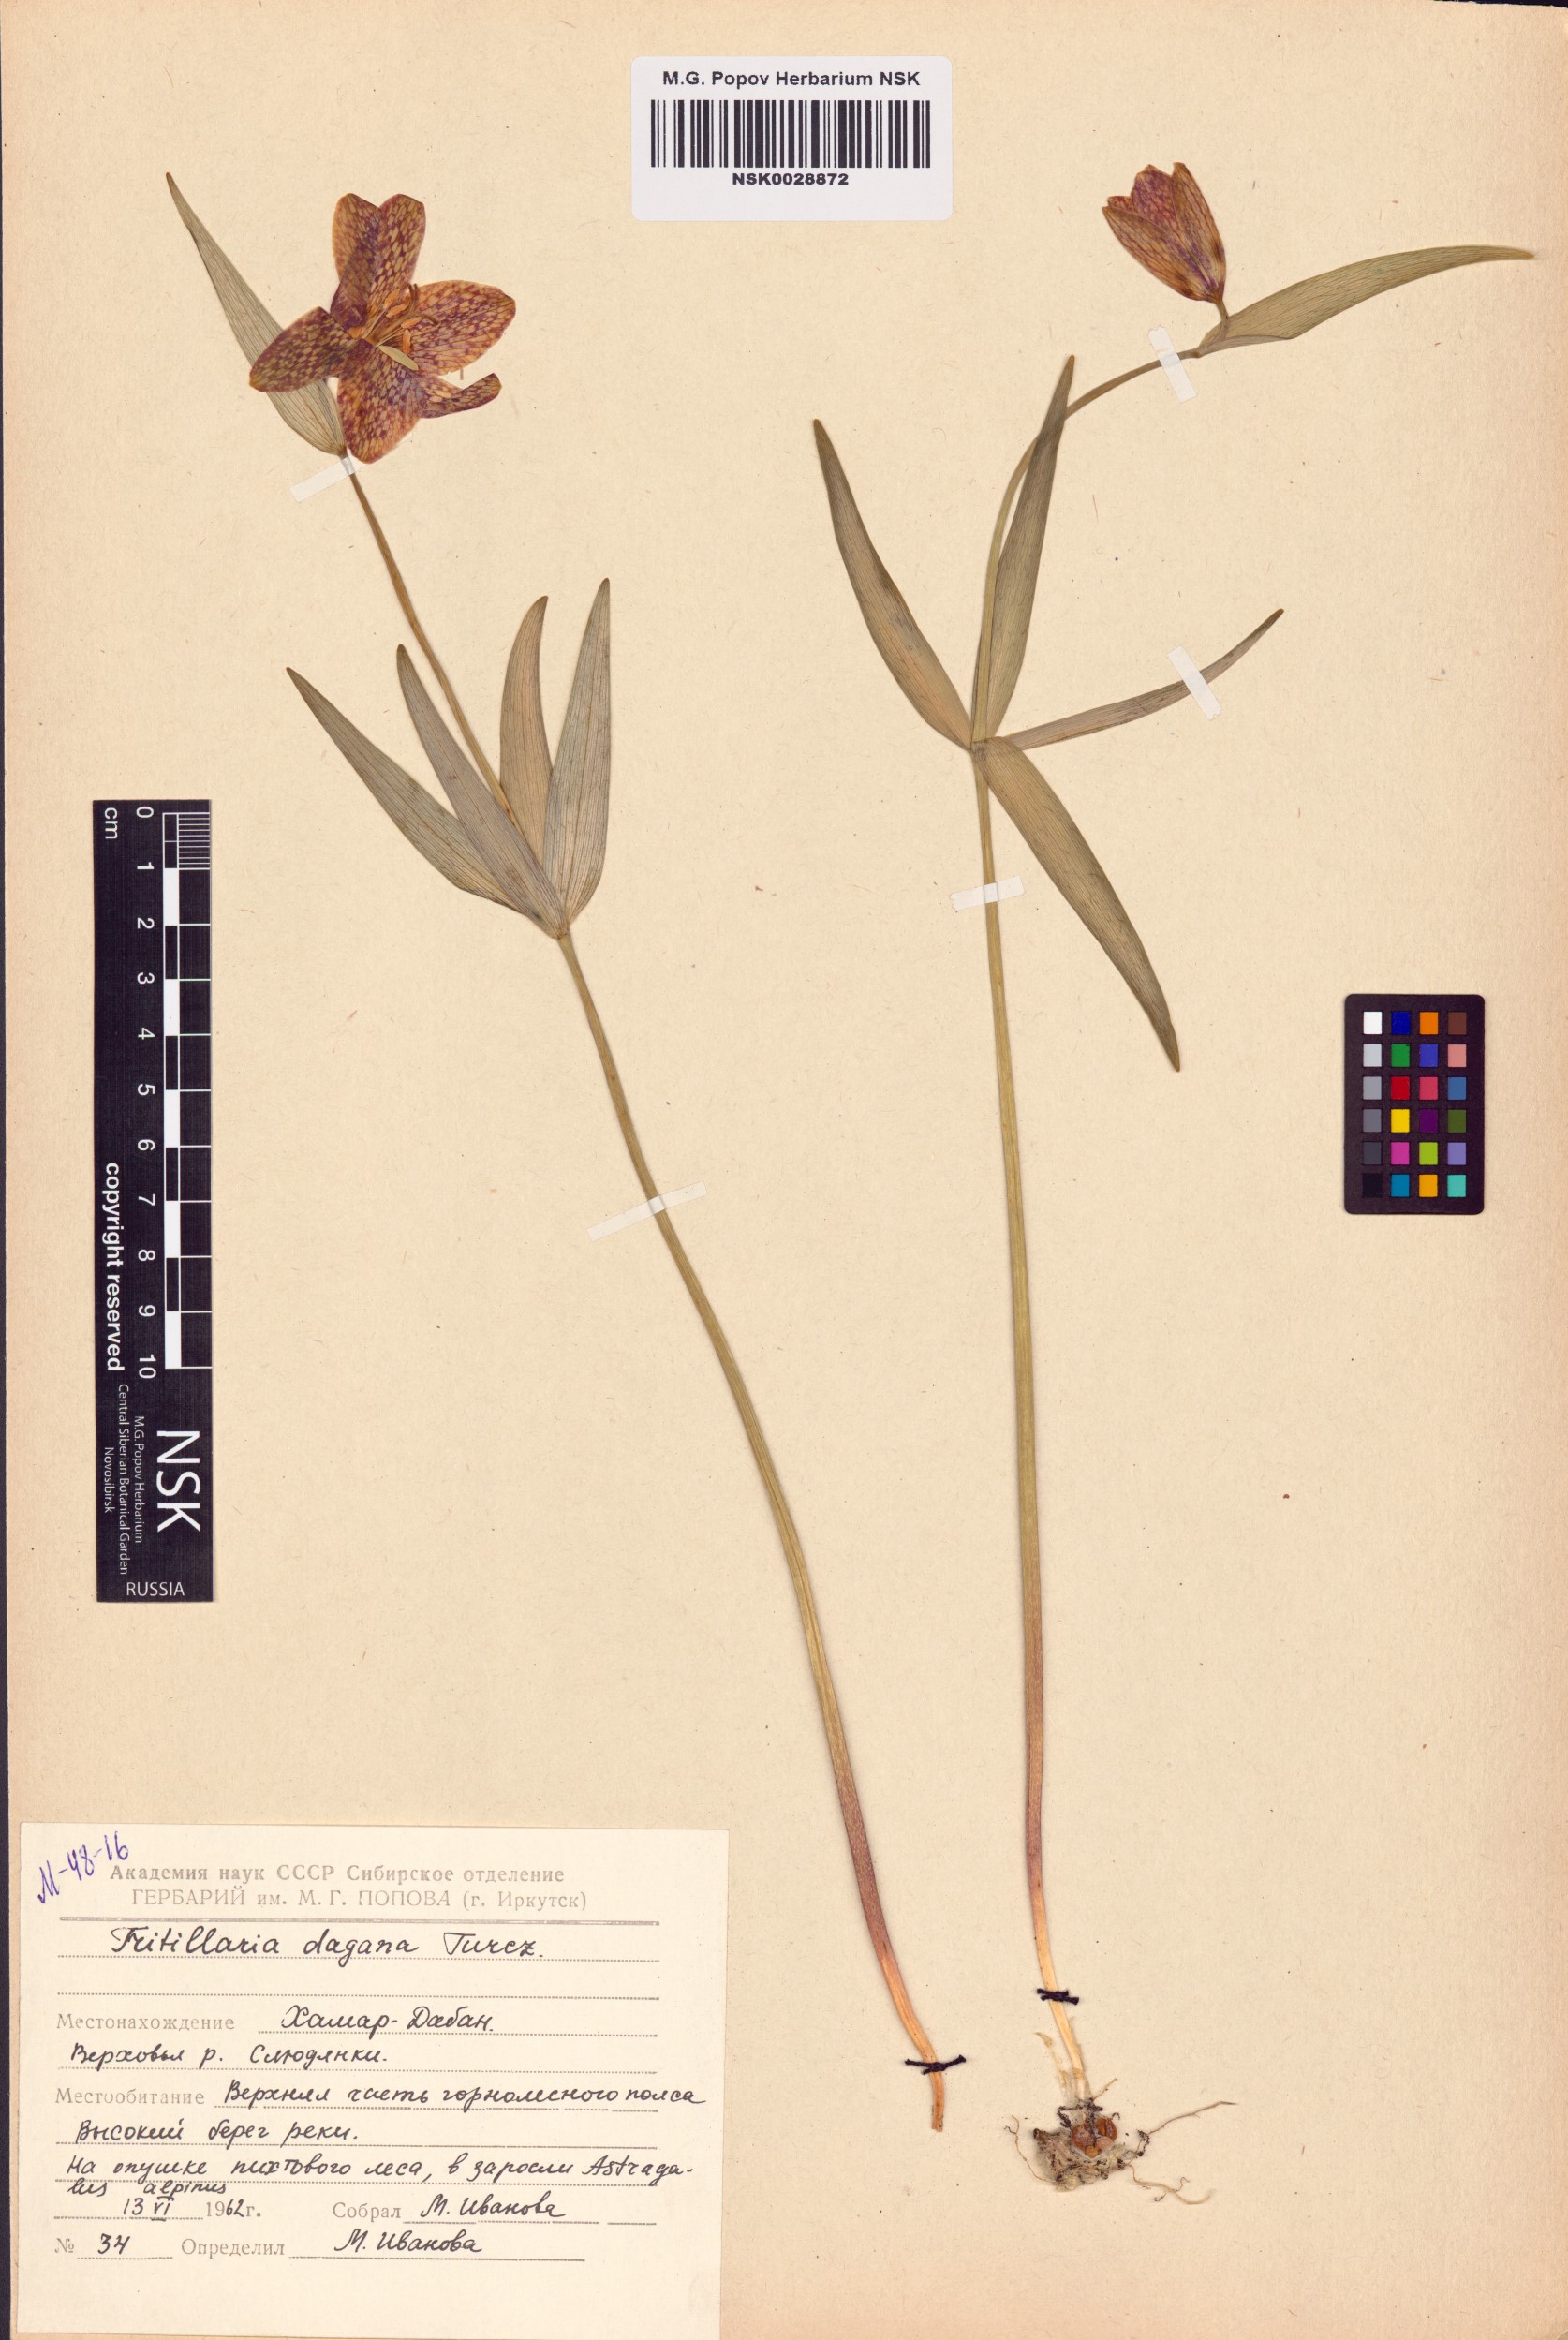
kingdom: Plantae
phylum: Tracheophyta
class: Liliopsida
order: Liliales
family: Liliaceae
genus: Fritillaria
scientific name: Fritillaria dagana
